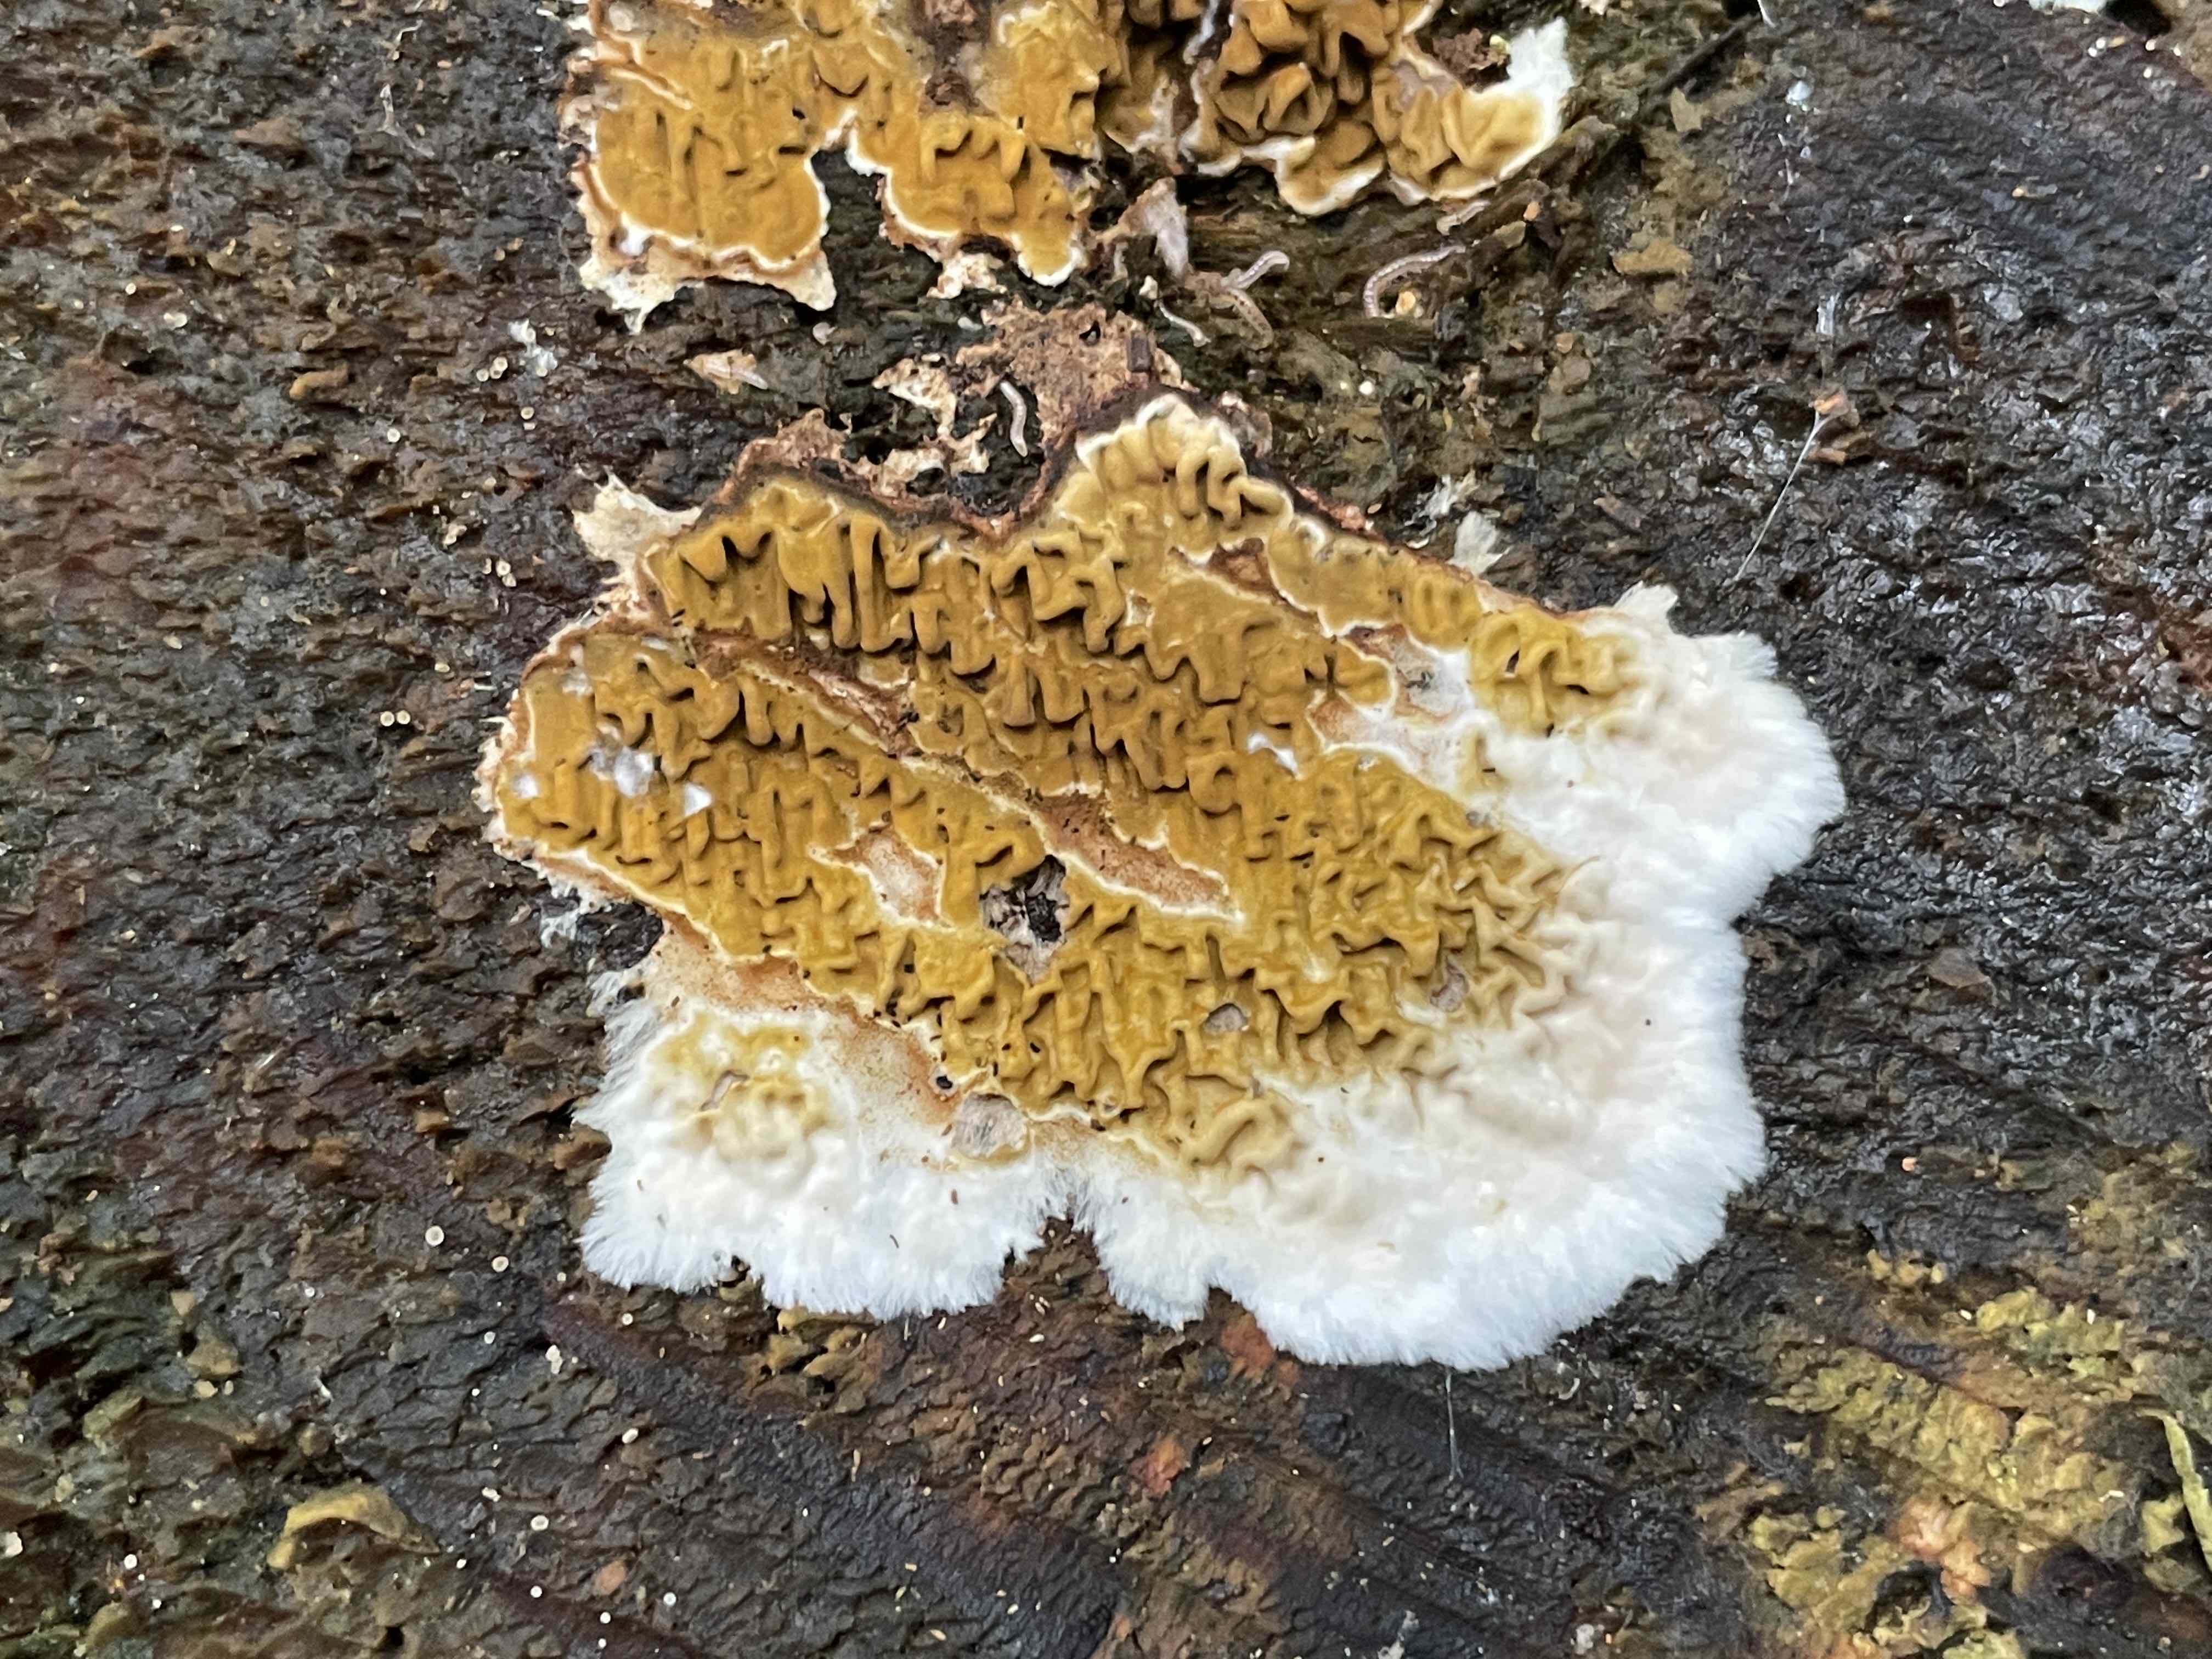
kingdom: Fungi
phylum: Basidiomycota
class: Agaricomycetes
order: Boletales
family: Serpulaceae
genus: Serpula
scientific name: Serpula himantioides
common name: tyndkødet hussvamp
